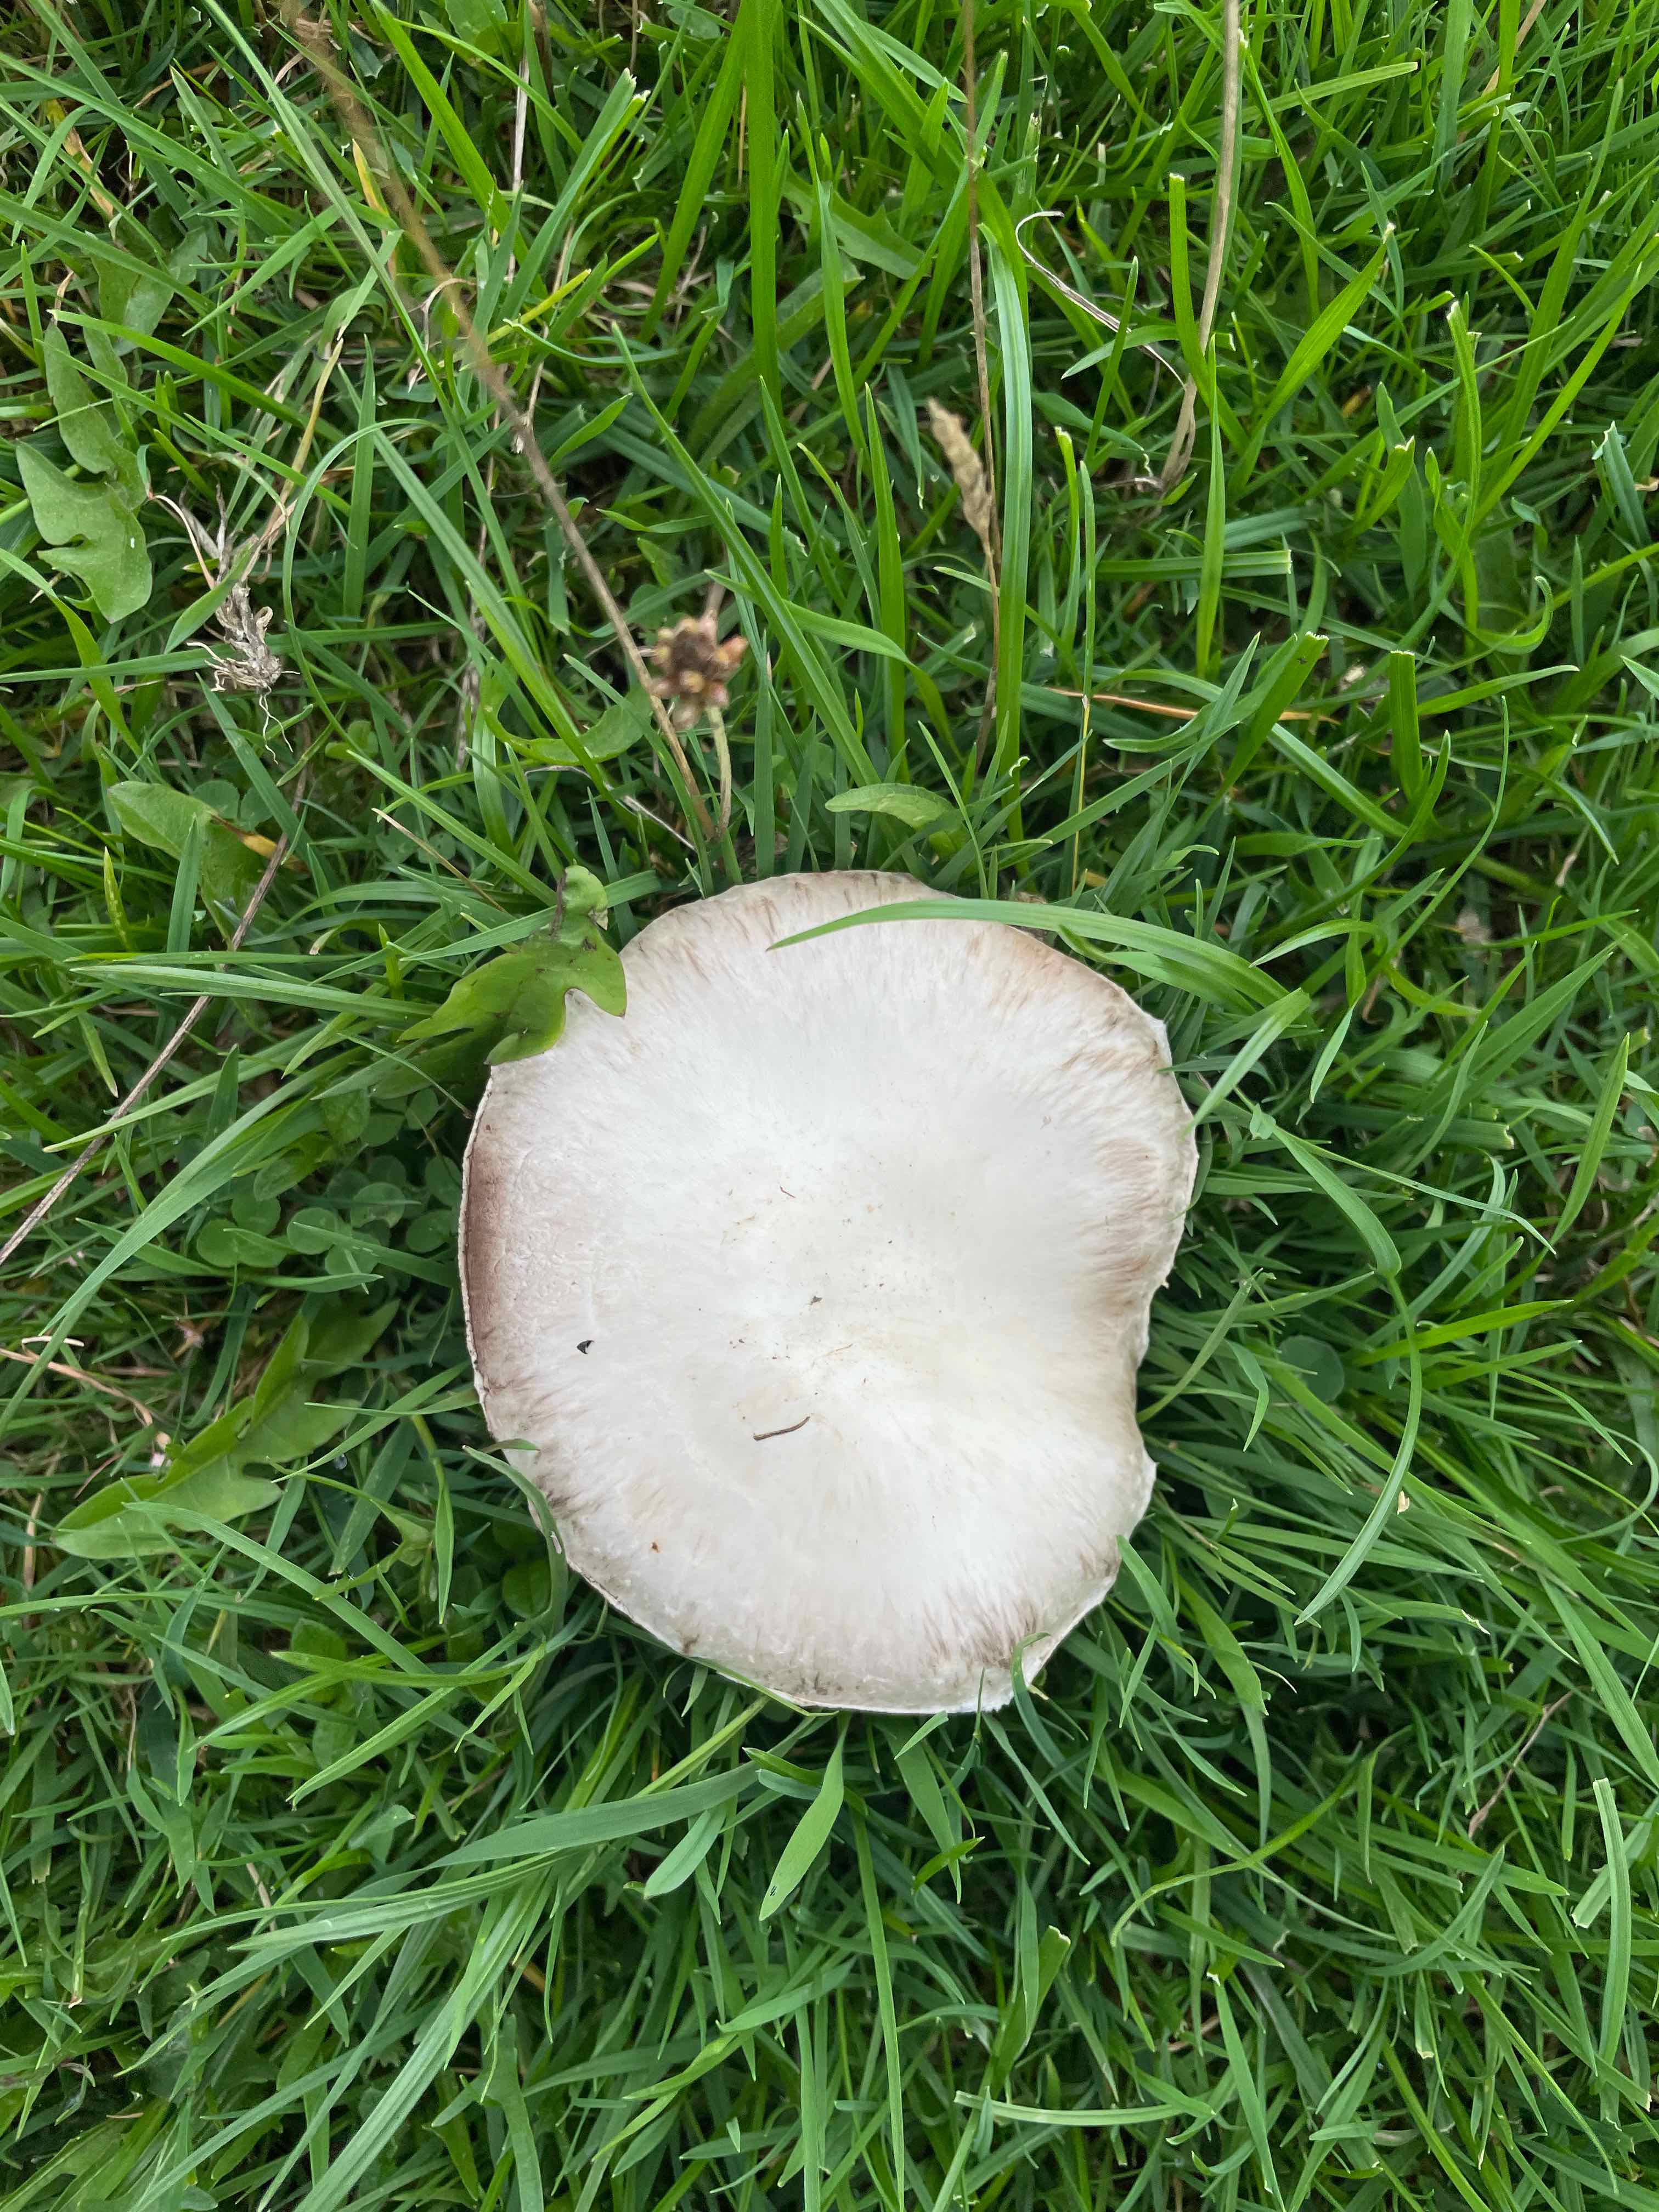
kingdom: Fungi
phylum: Basidiomycota
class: Agaricomycetes
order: Agaricales
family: Agaricaceae
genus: Agaricus
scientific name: Agaricus
